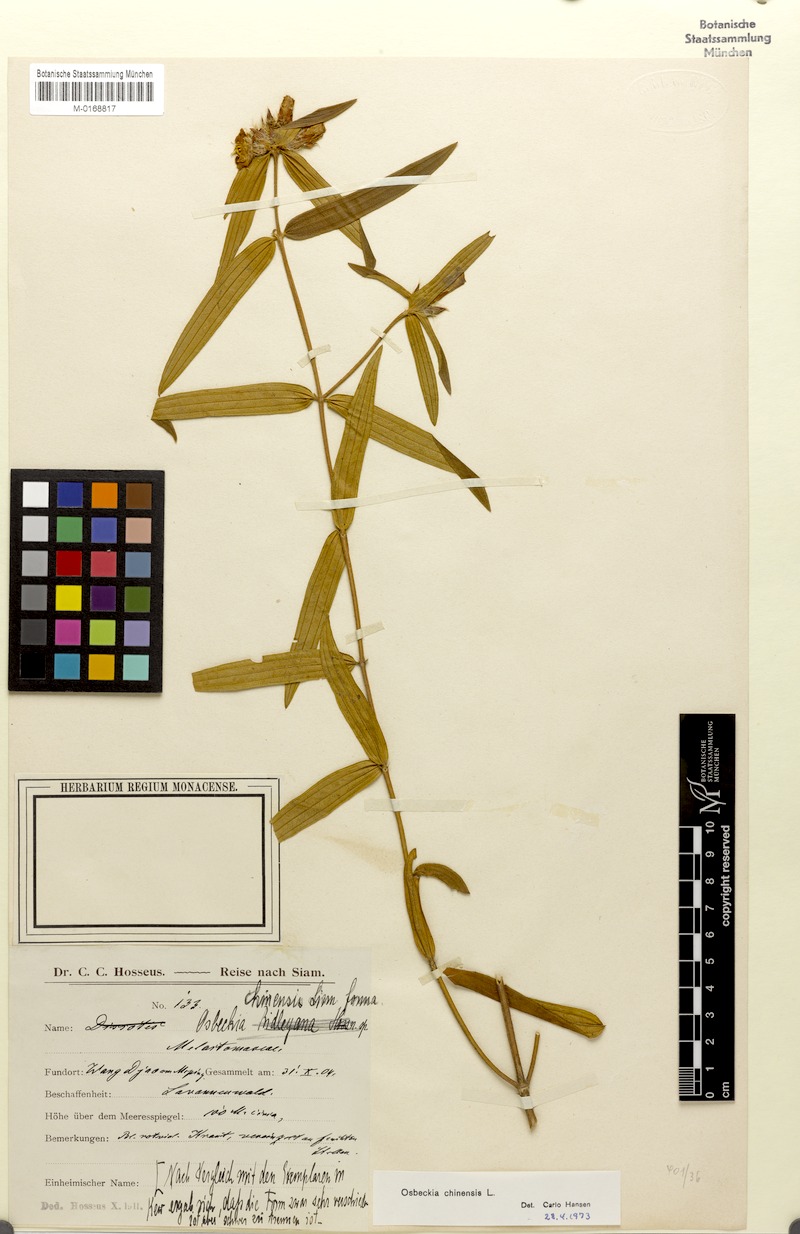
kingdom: Plantae
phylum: Tracheophyta
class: Magnoliopsida
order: Myrtales
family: Melastomataceae
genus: Osbeckia
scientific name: Osbeckia chinensis
